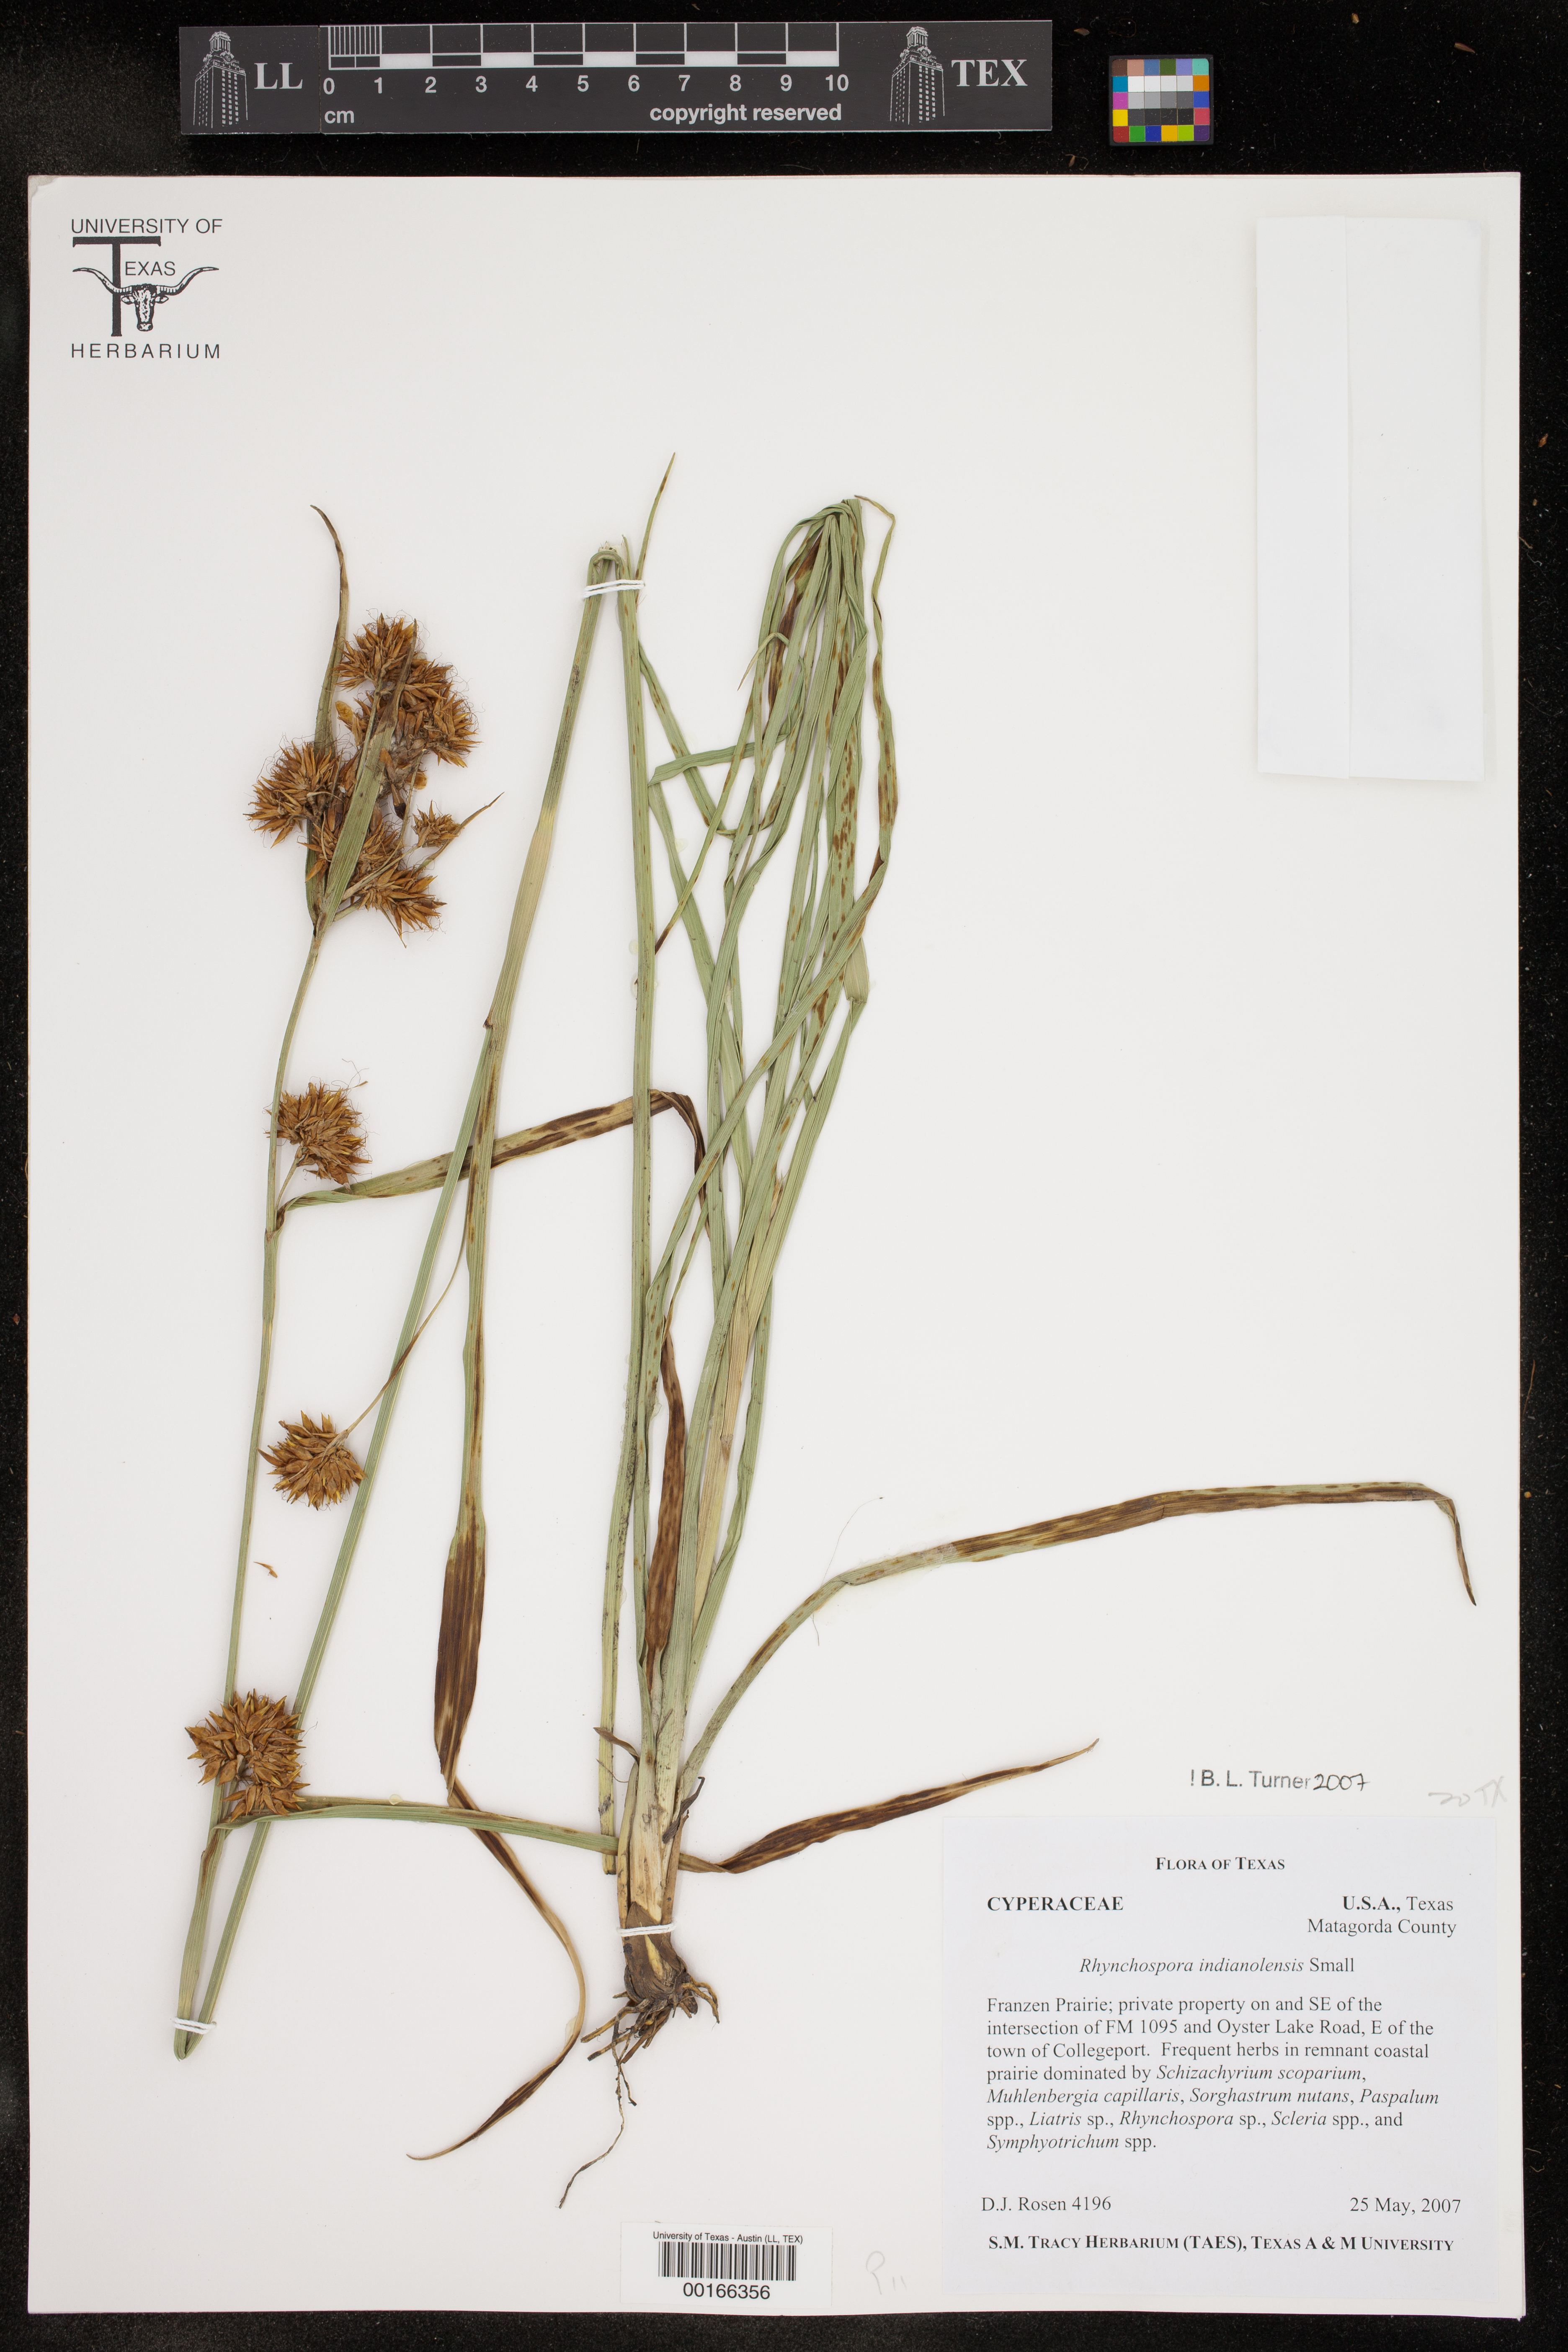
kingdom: Plantae
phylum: Tracheophyta
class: Liliopsida
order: Poales
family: Cyperaceae
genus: Rhynchospora
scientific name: Rhynchospora scutellata
